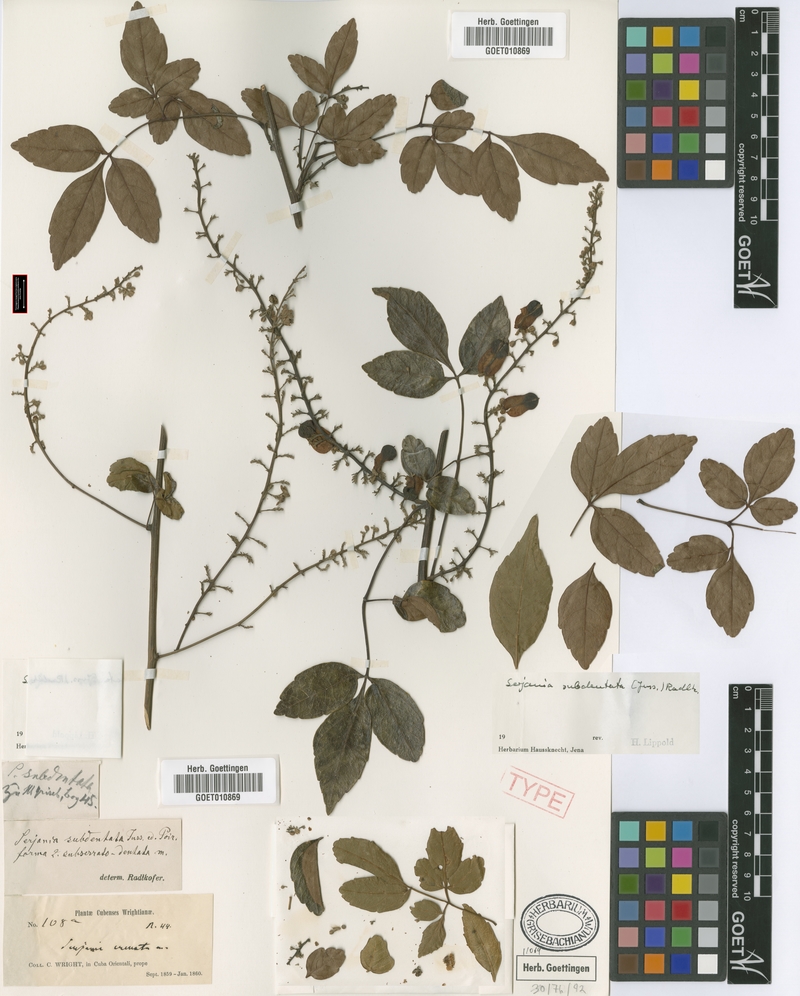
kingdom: Plantae
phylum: Tracheophyta
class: Magnoliopsida
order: Sapindales
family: Sapindaceae
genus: Serjania
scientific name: Serjania subdentata
